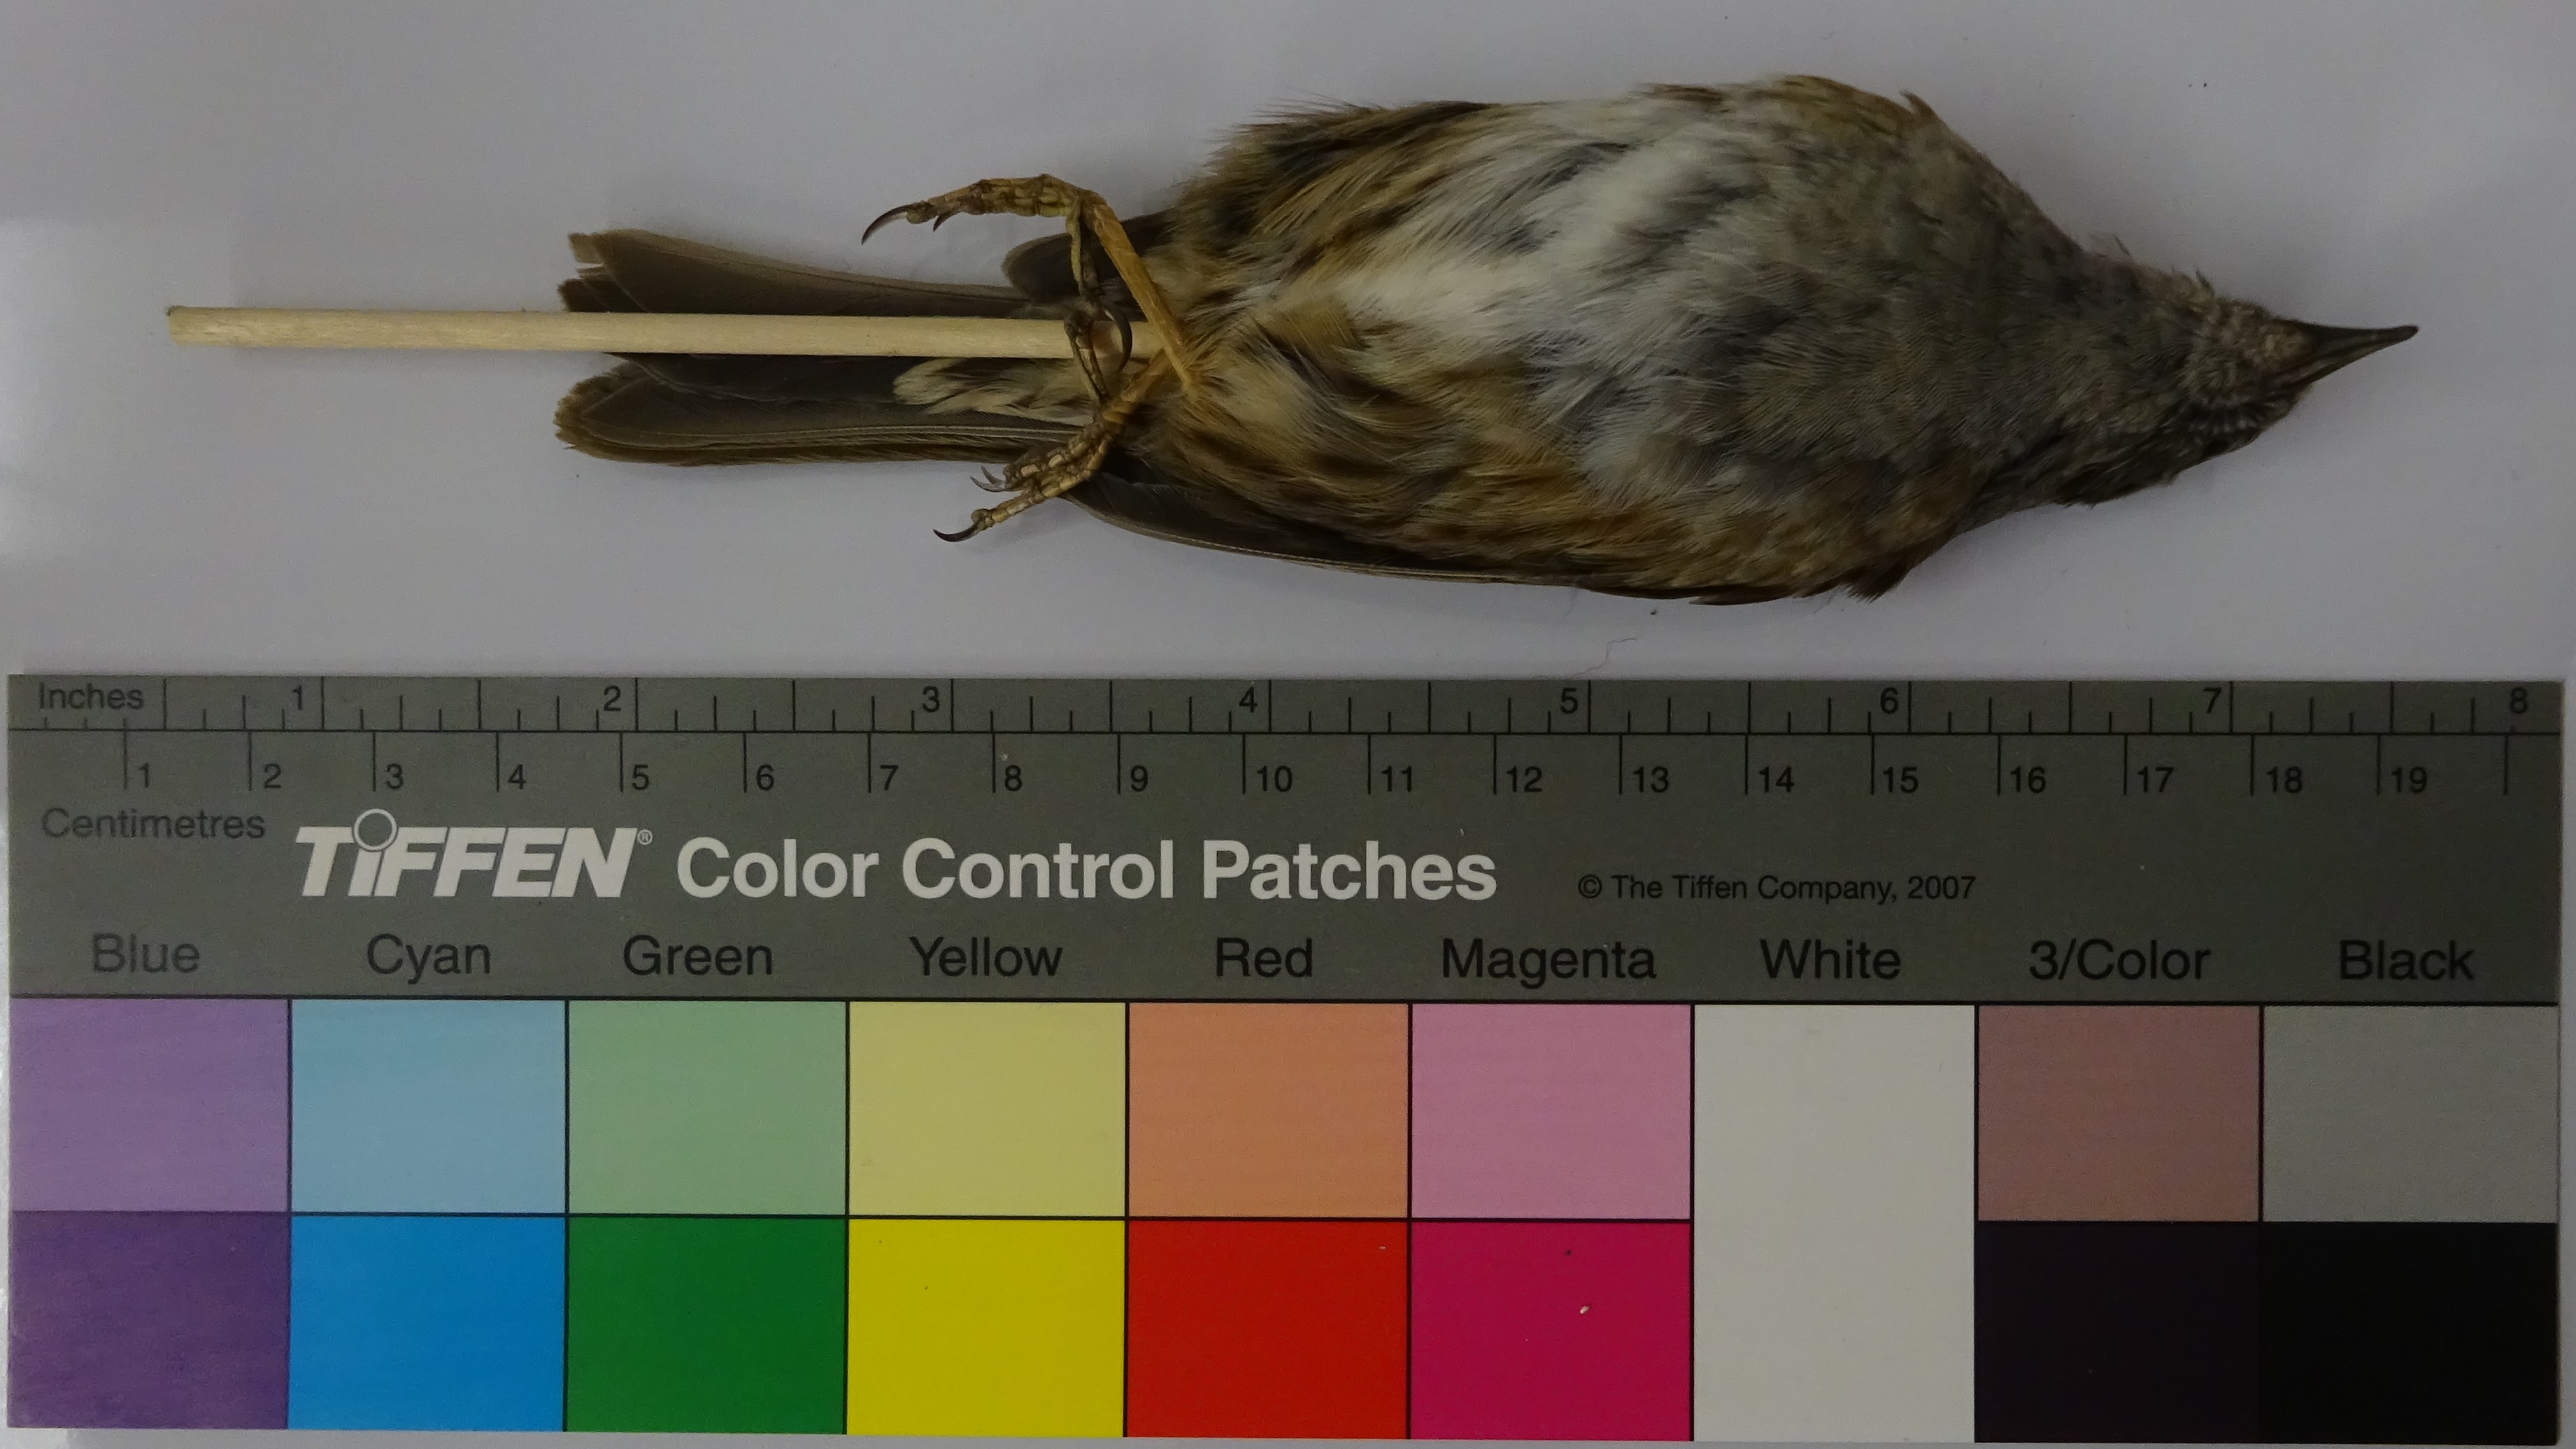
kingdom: Animalia
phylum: Chordata
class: Aves
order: Passeriformes
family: Prunellidae
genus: Prunella
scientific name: Prunella modularis
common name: Dunnock
